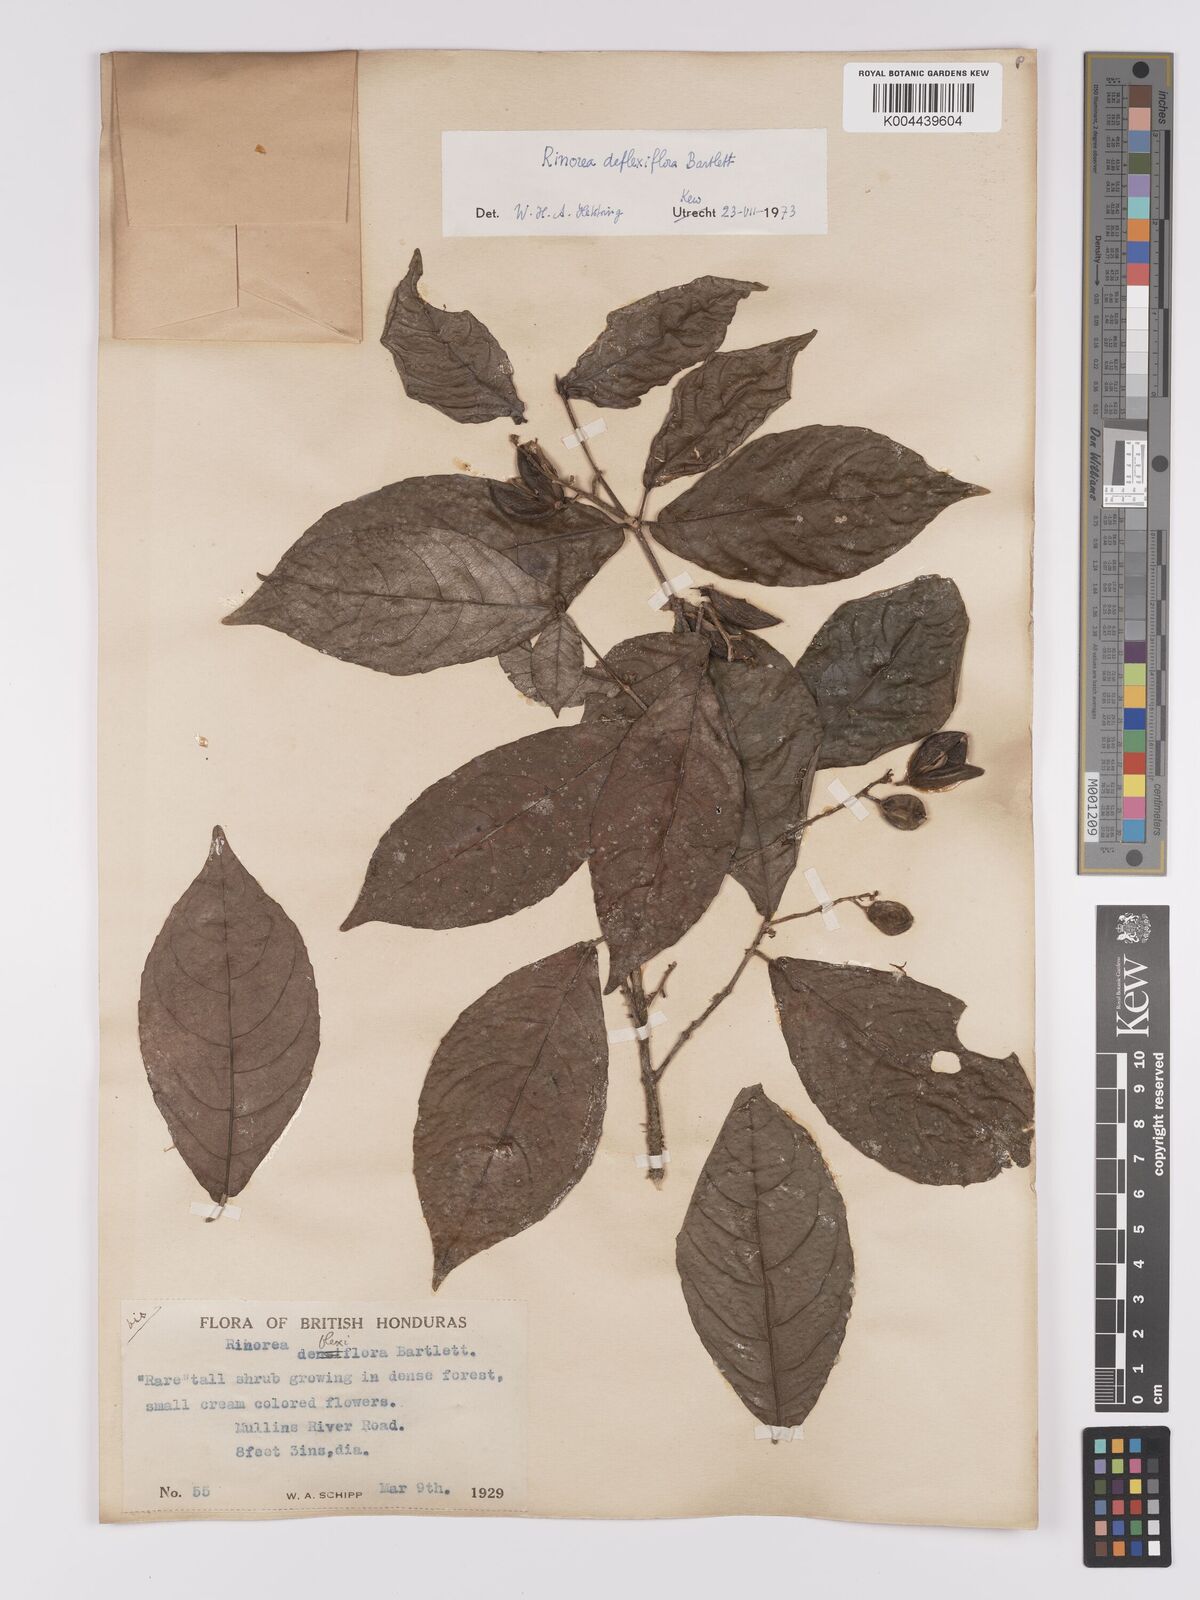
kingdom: Plantae
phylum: Tracheophyta
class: Magnoliopsida
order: Malpighiales
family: Violaceae
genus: Rinorea
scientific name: Rinorea deflexiflora
